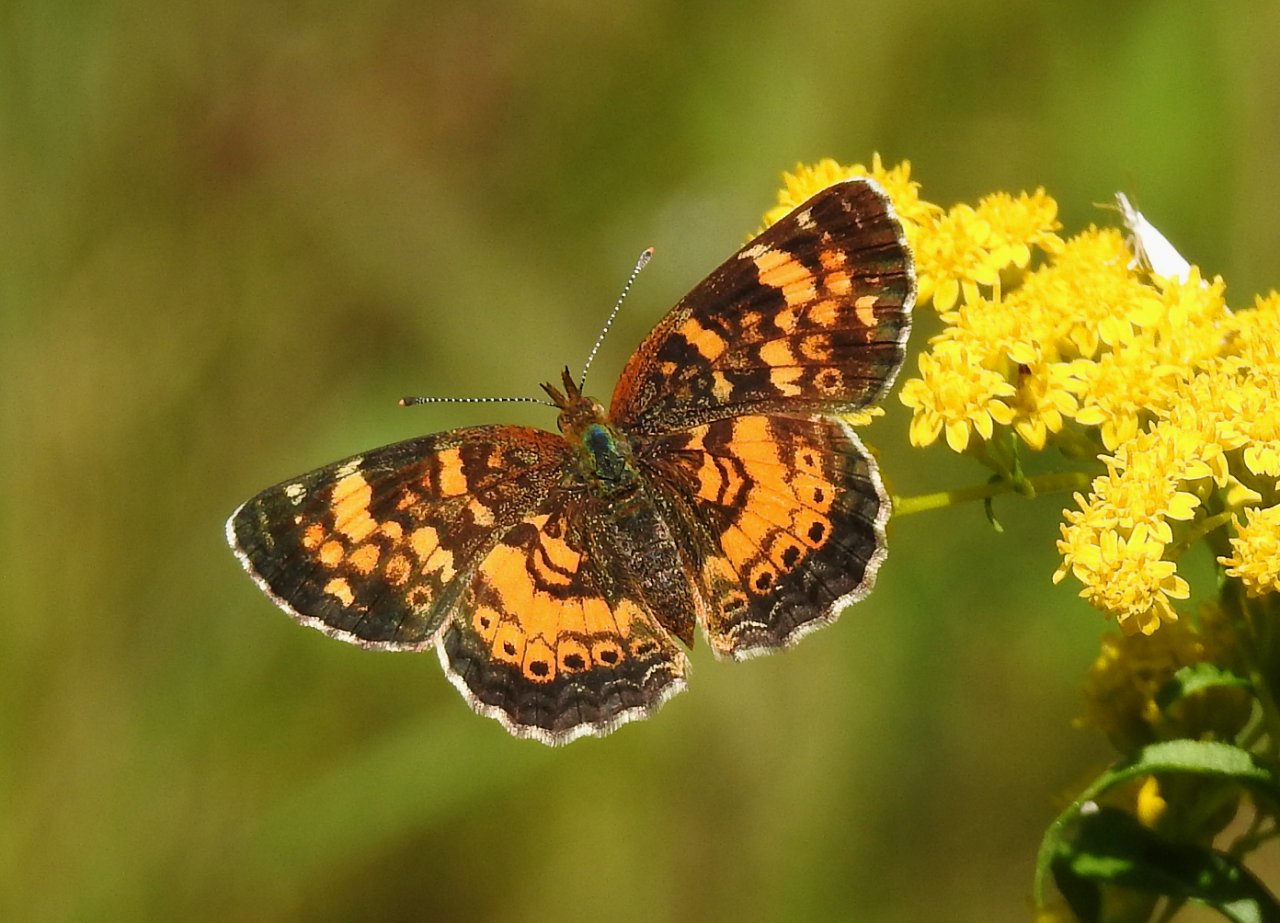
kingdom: Animalia
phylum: Arthropoda
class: Insecta
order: Lepidoptera
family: Nymphalidae
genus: Phyciodes
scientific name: Phyciodes tharos
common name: Pearl Crescent
